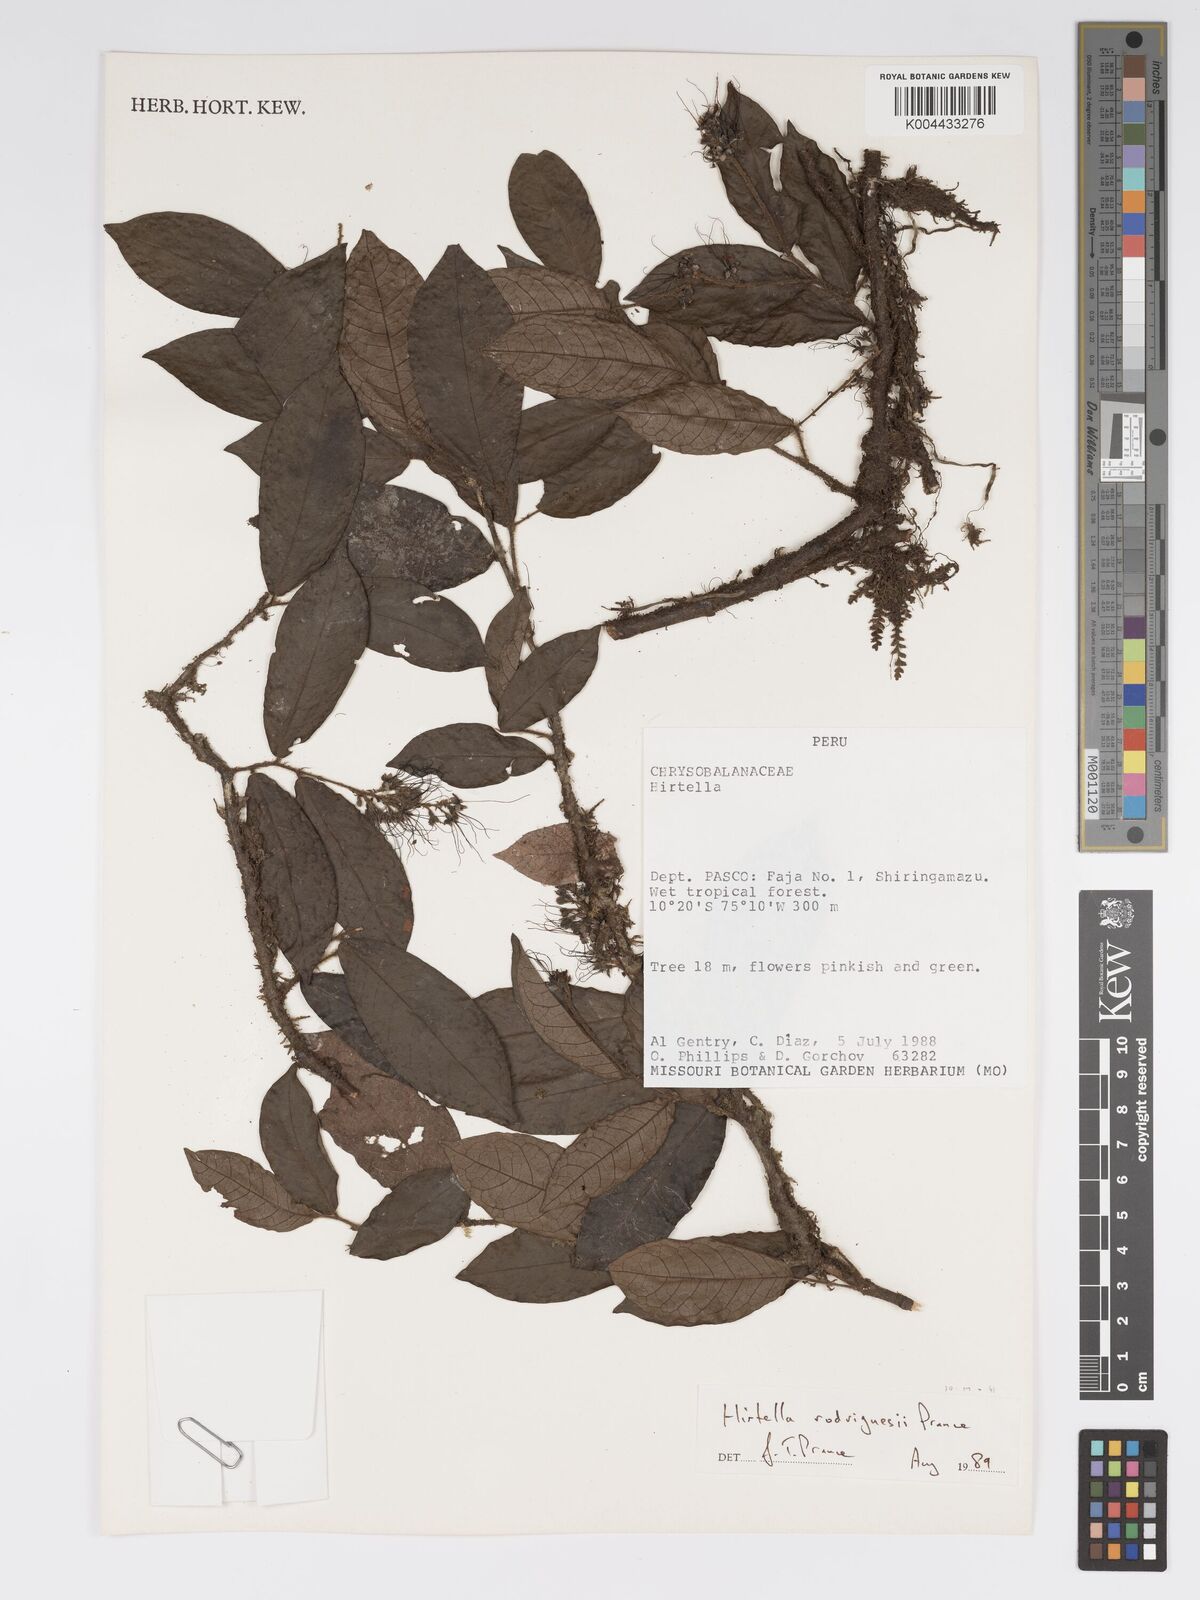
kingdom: Plantae
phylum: Tracheophyta
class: Magnoliopsida
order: Malpighiales
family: Chrysobalanaceae
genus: Hirtella
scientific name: Hirtella rodriguesii
